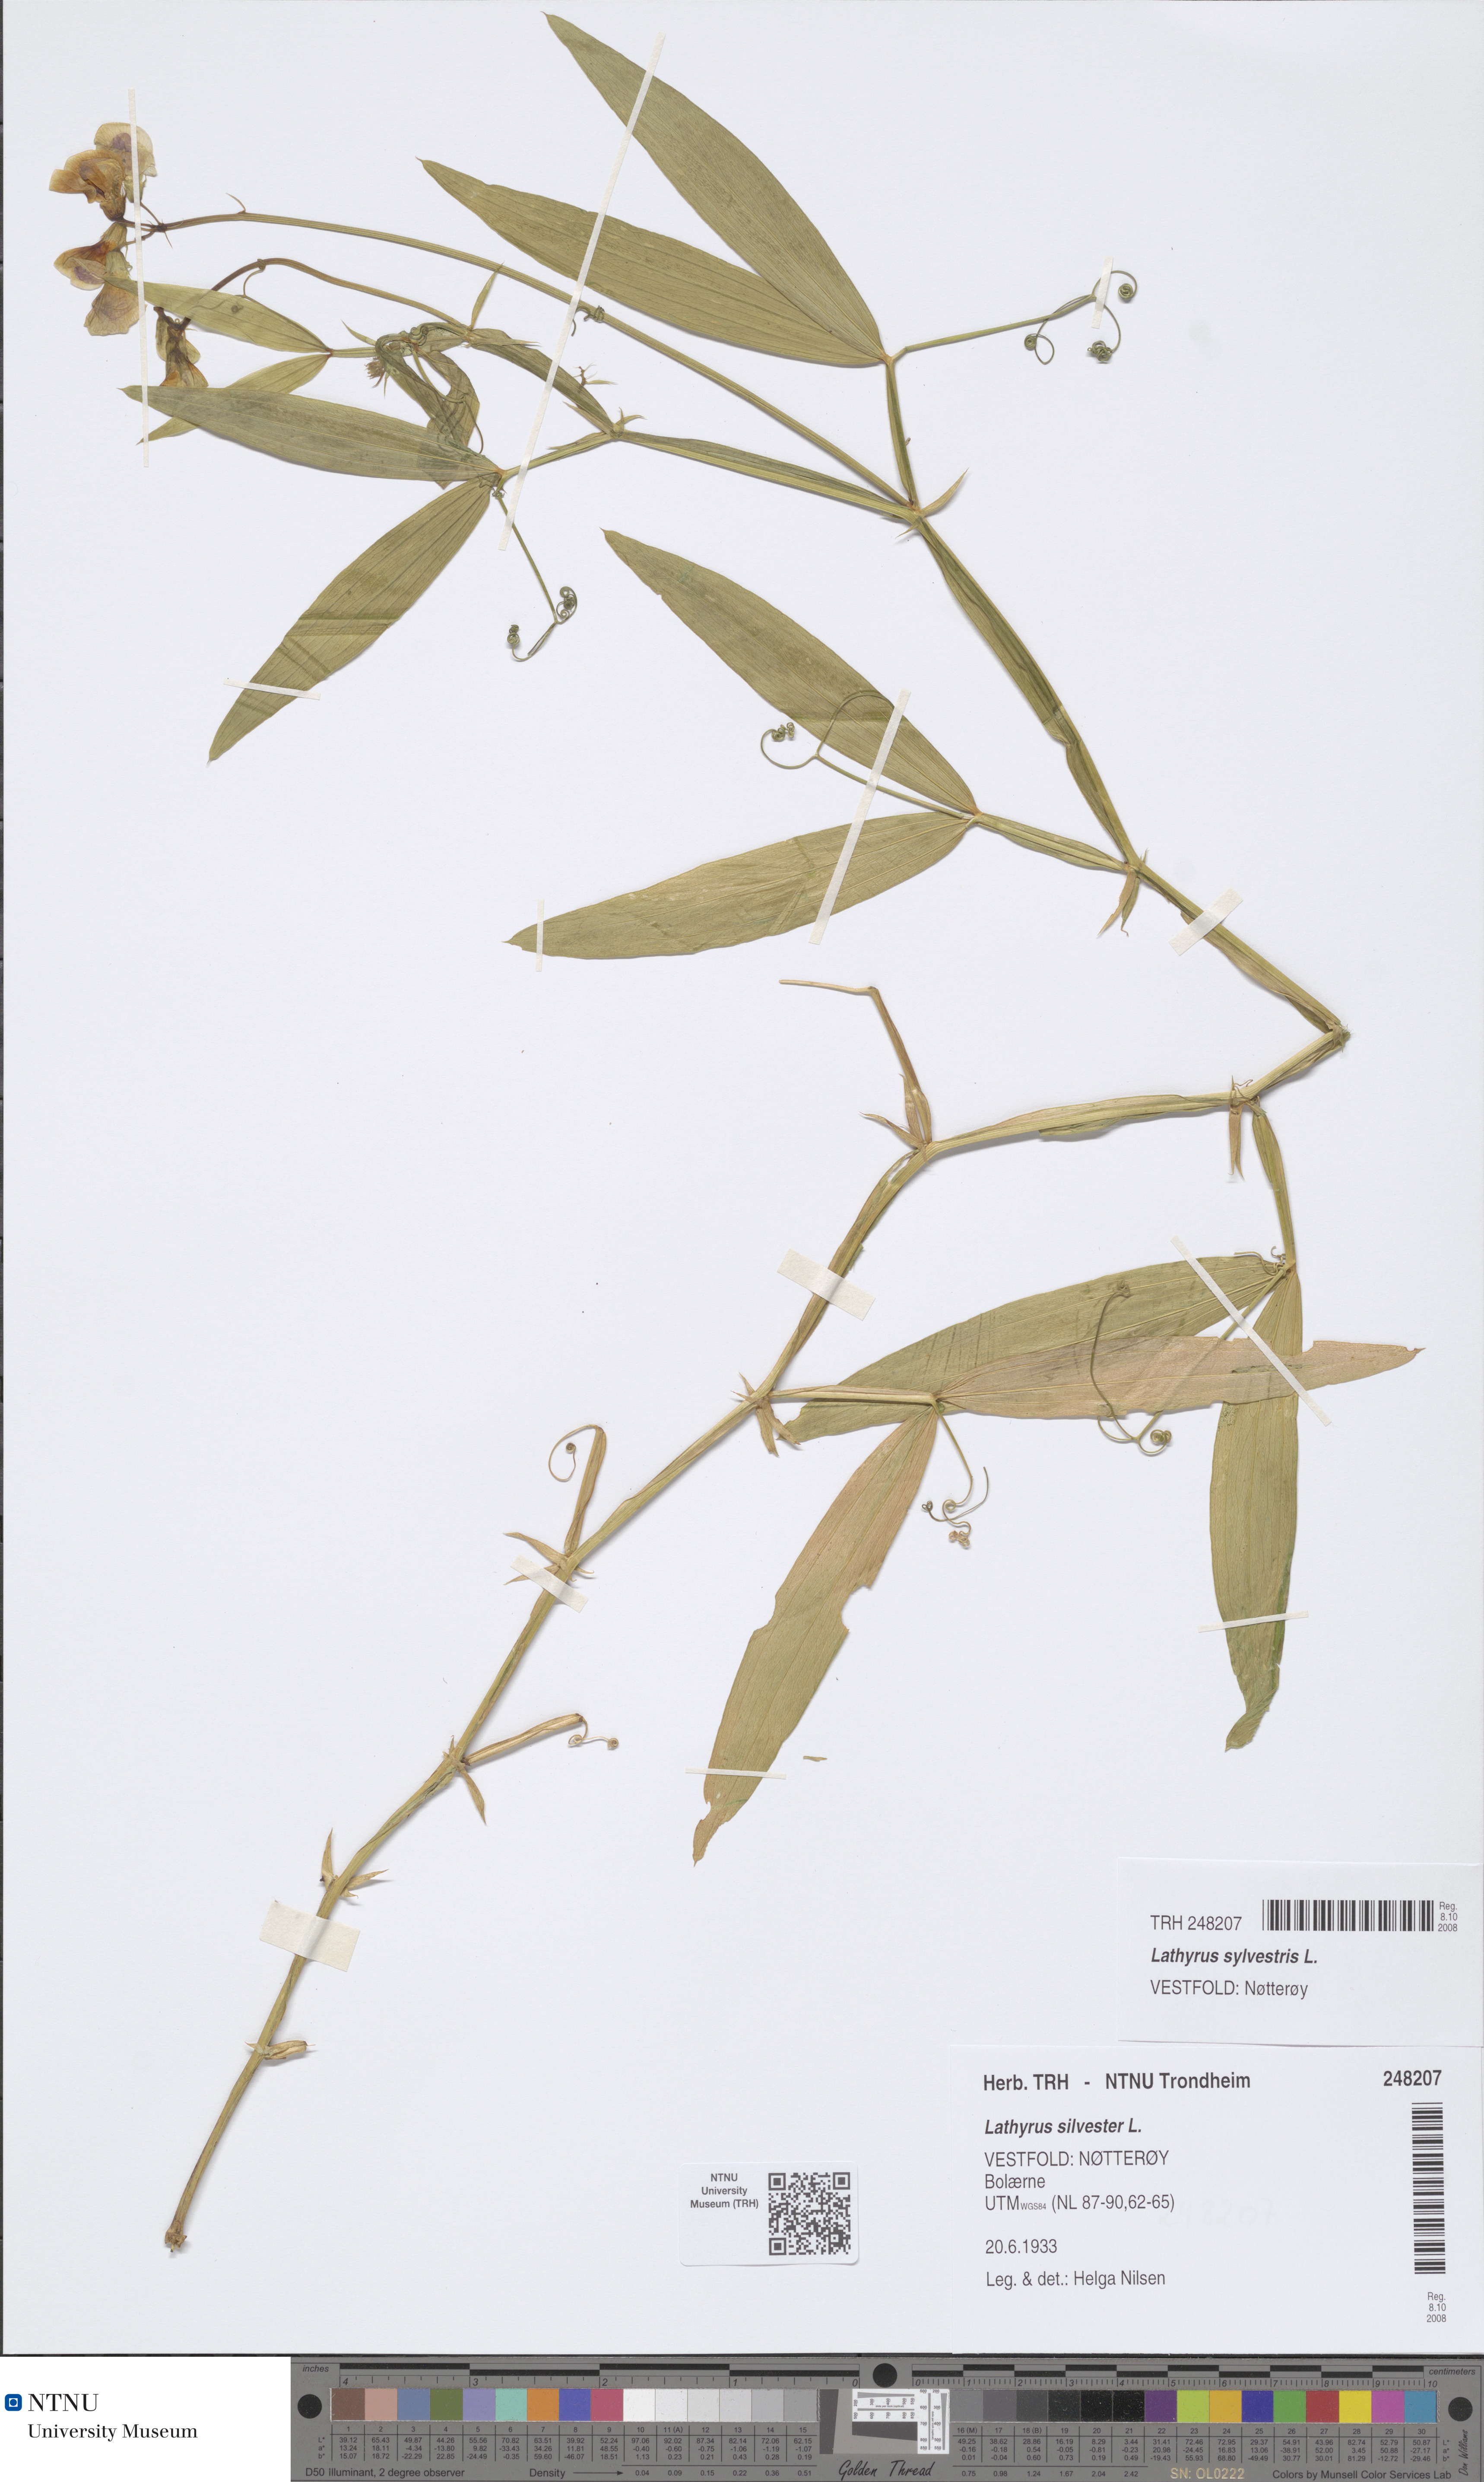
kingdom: Plantae
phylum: Tracheophyta
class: Magnoliopsida
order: Fabales
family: Fabaceae
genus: Lathyrus
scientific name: Lathyrus sylvestris
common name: Flat pea
